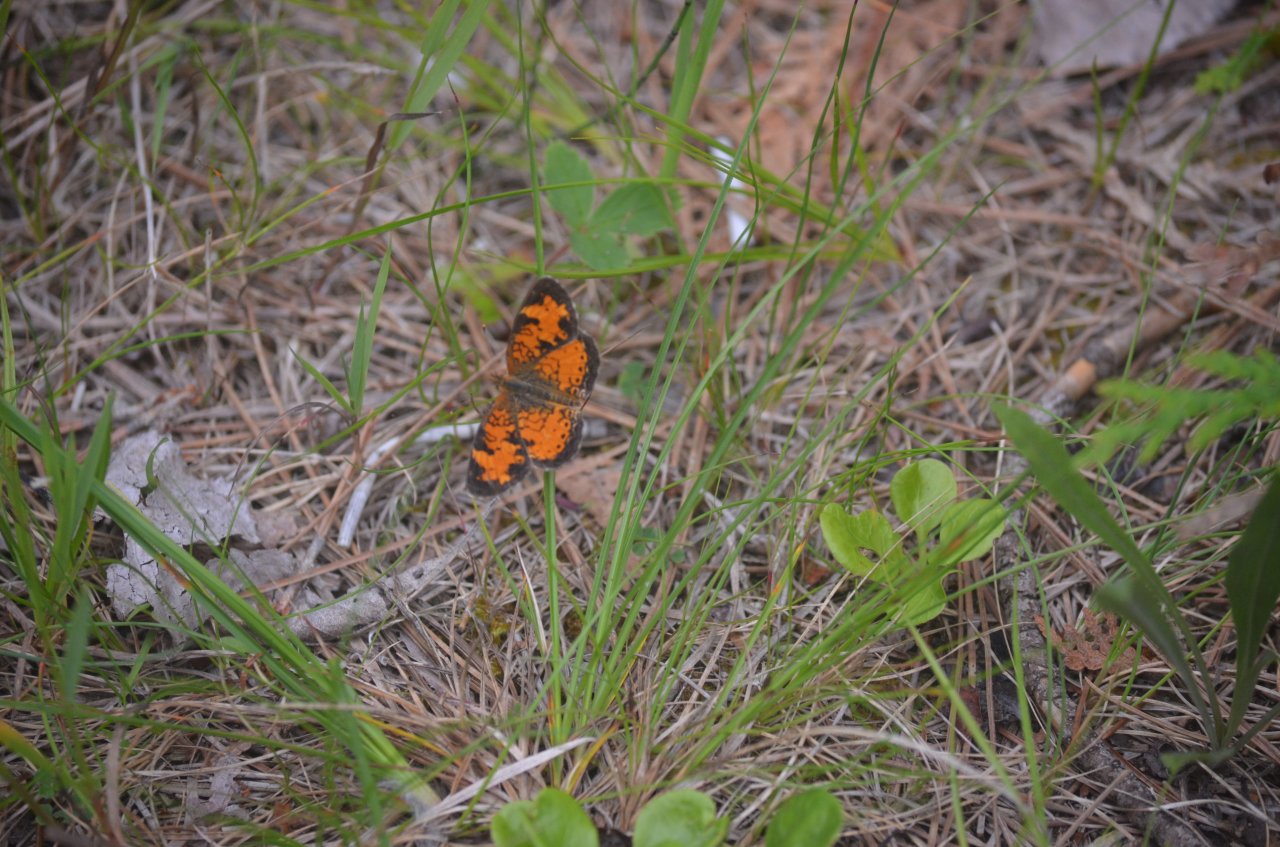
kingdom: Animalia
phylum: Arthropoda
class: Insecta
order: Lepidoptera
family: Nymphalidae
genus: Phyciodes
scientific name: Phyciodes tharos
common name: Northern Crescent
